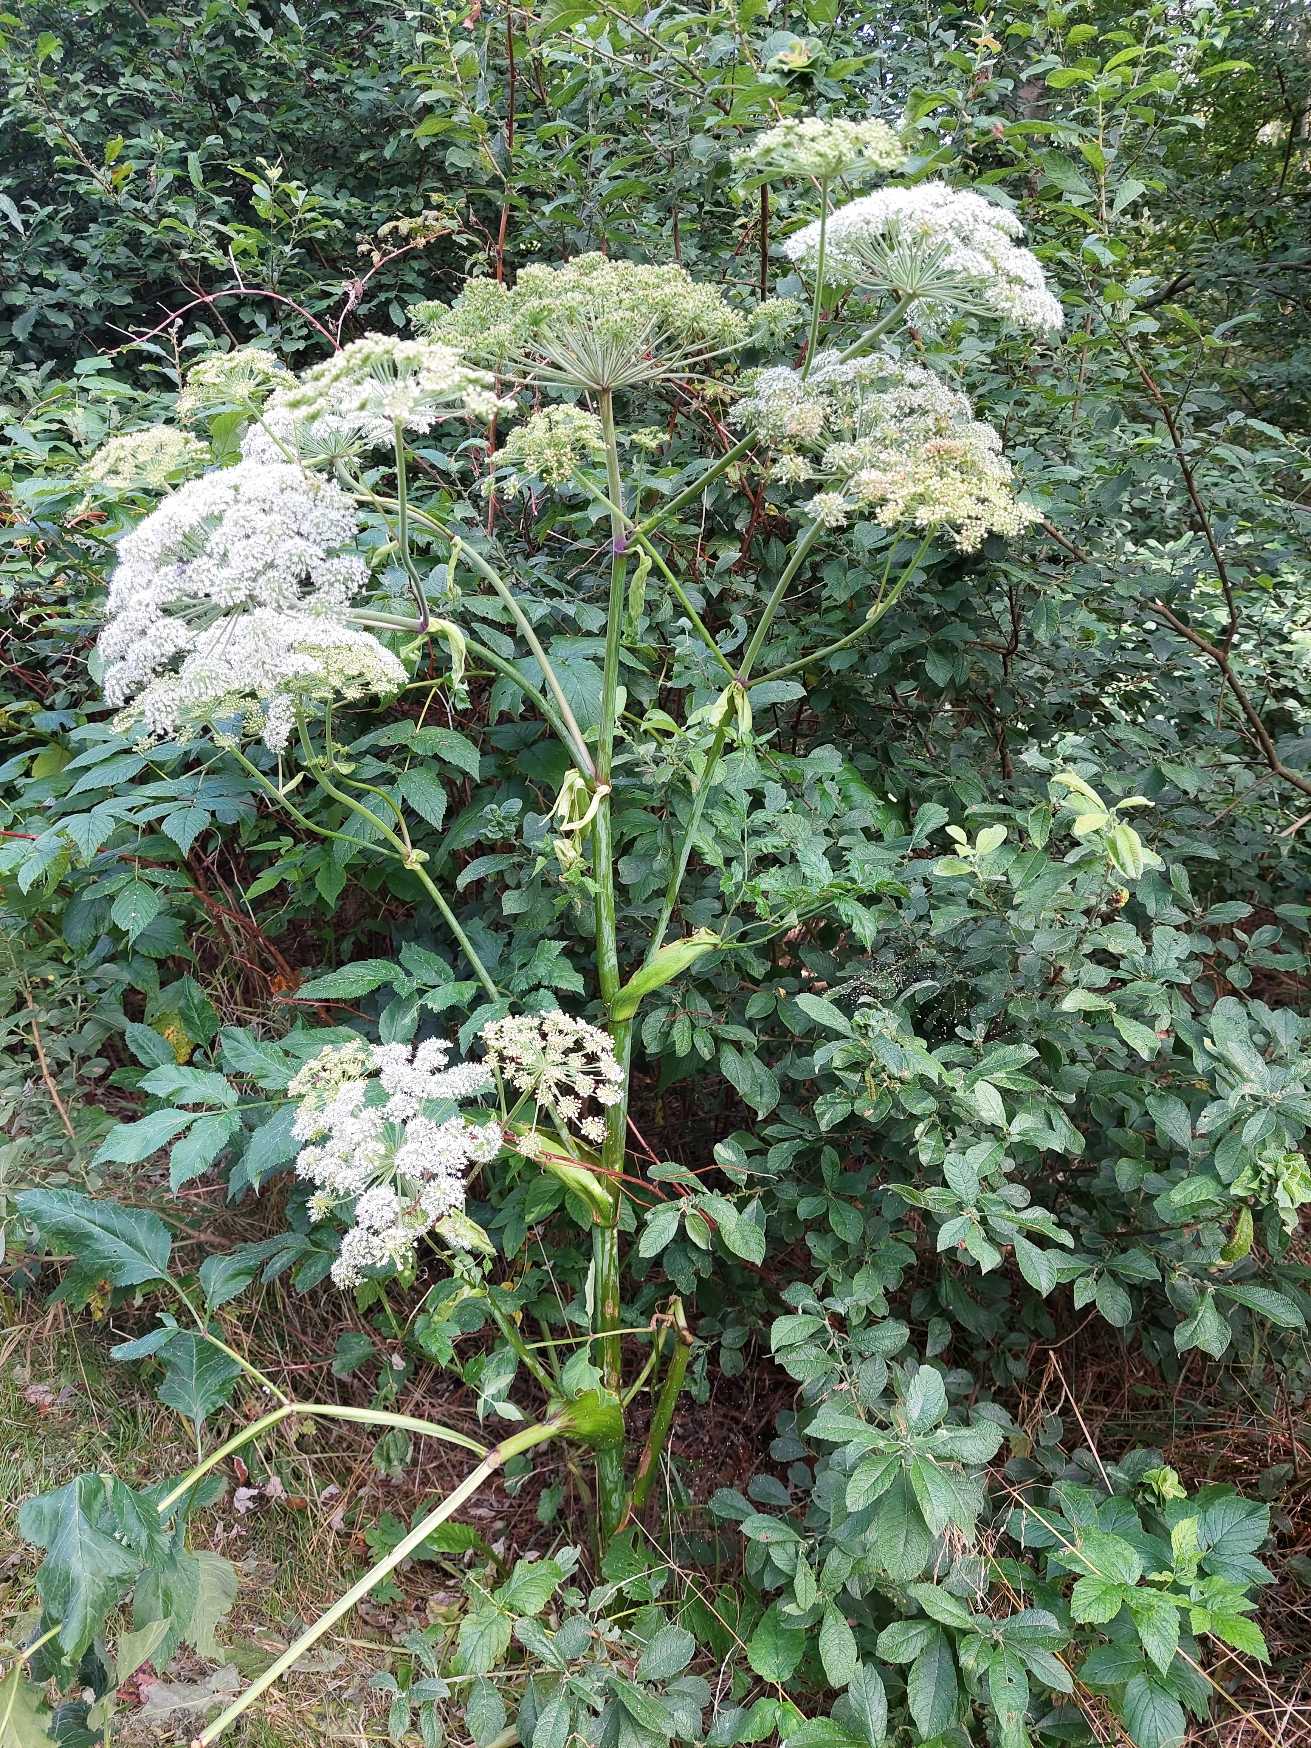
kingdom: Plantae
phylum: Tracheophyta
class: Magnoliopsida
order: Apiales
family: Apiaceae
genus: Angelica
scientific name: Angelica sylvestris
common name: Angelik
